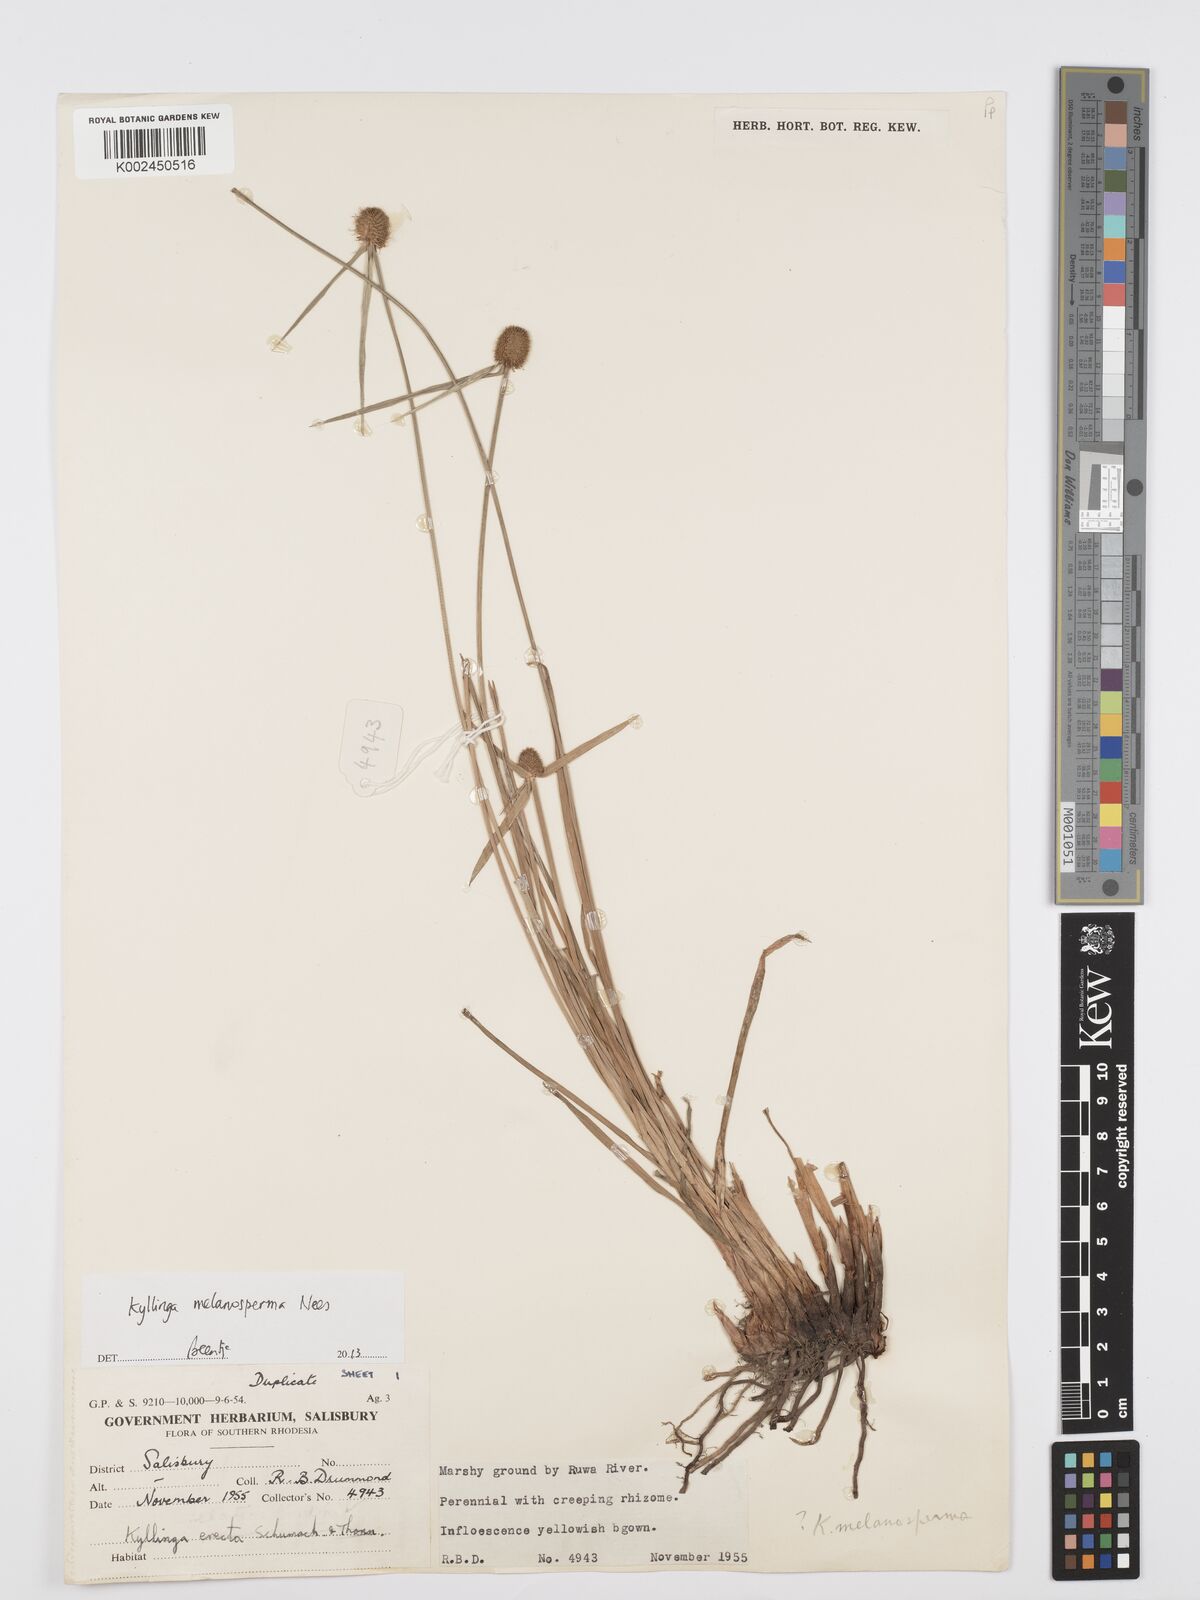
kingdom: Plantae
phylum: Tracheophyta
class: Liliopsida
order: Poales
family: Cyperaceae
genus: Cyperus
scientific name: Cyperus melanospermus
